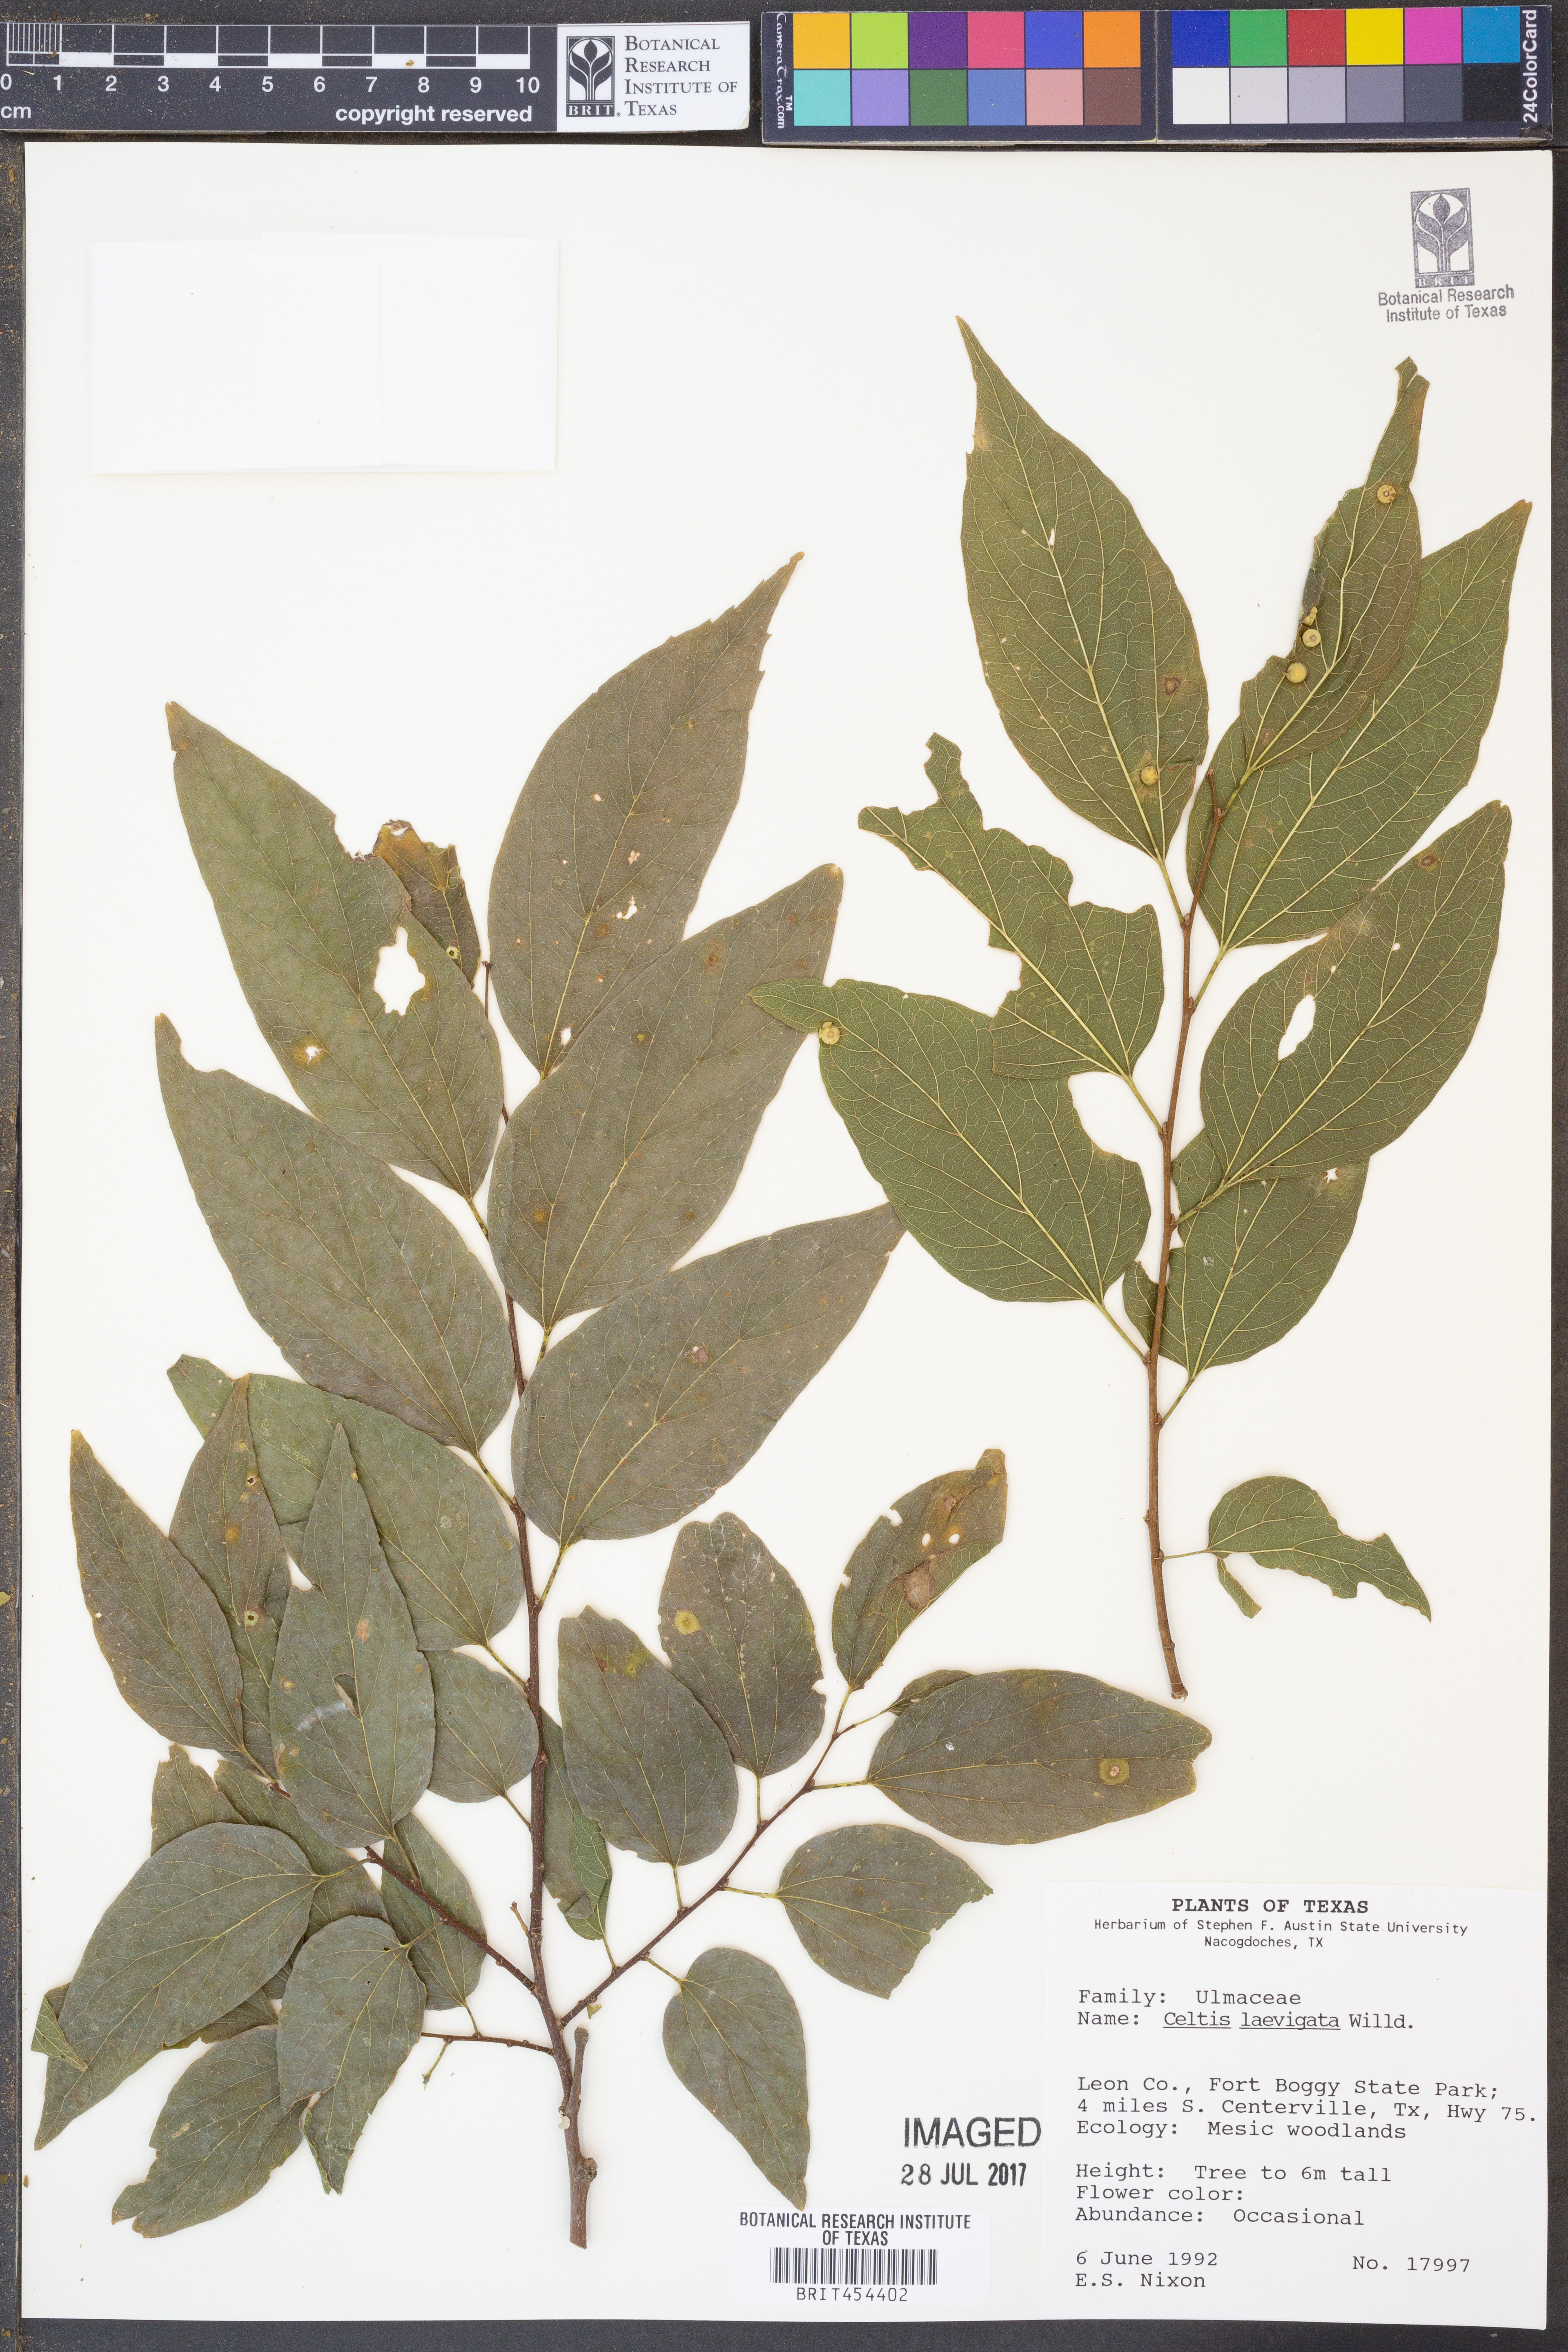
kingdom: Plantae
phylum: Tracheophyta
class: Magnoliopsida
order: Rosales
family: Cannabaceae
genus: Celtis
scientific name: Celtis laevigata
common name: Sugarberry
